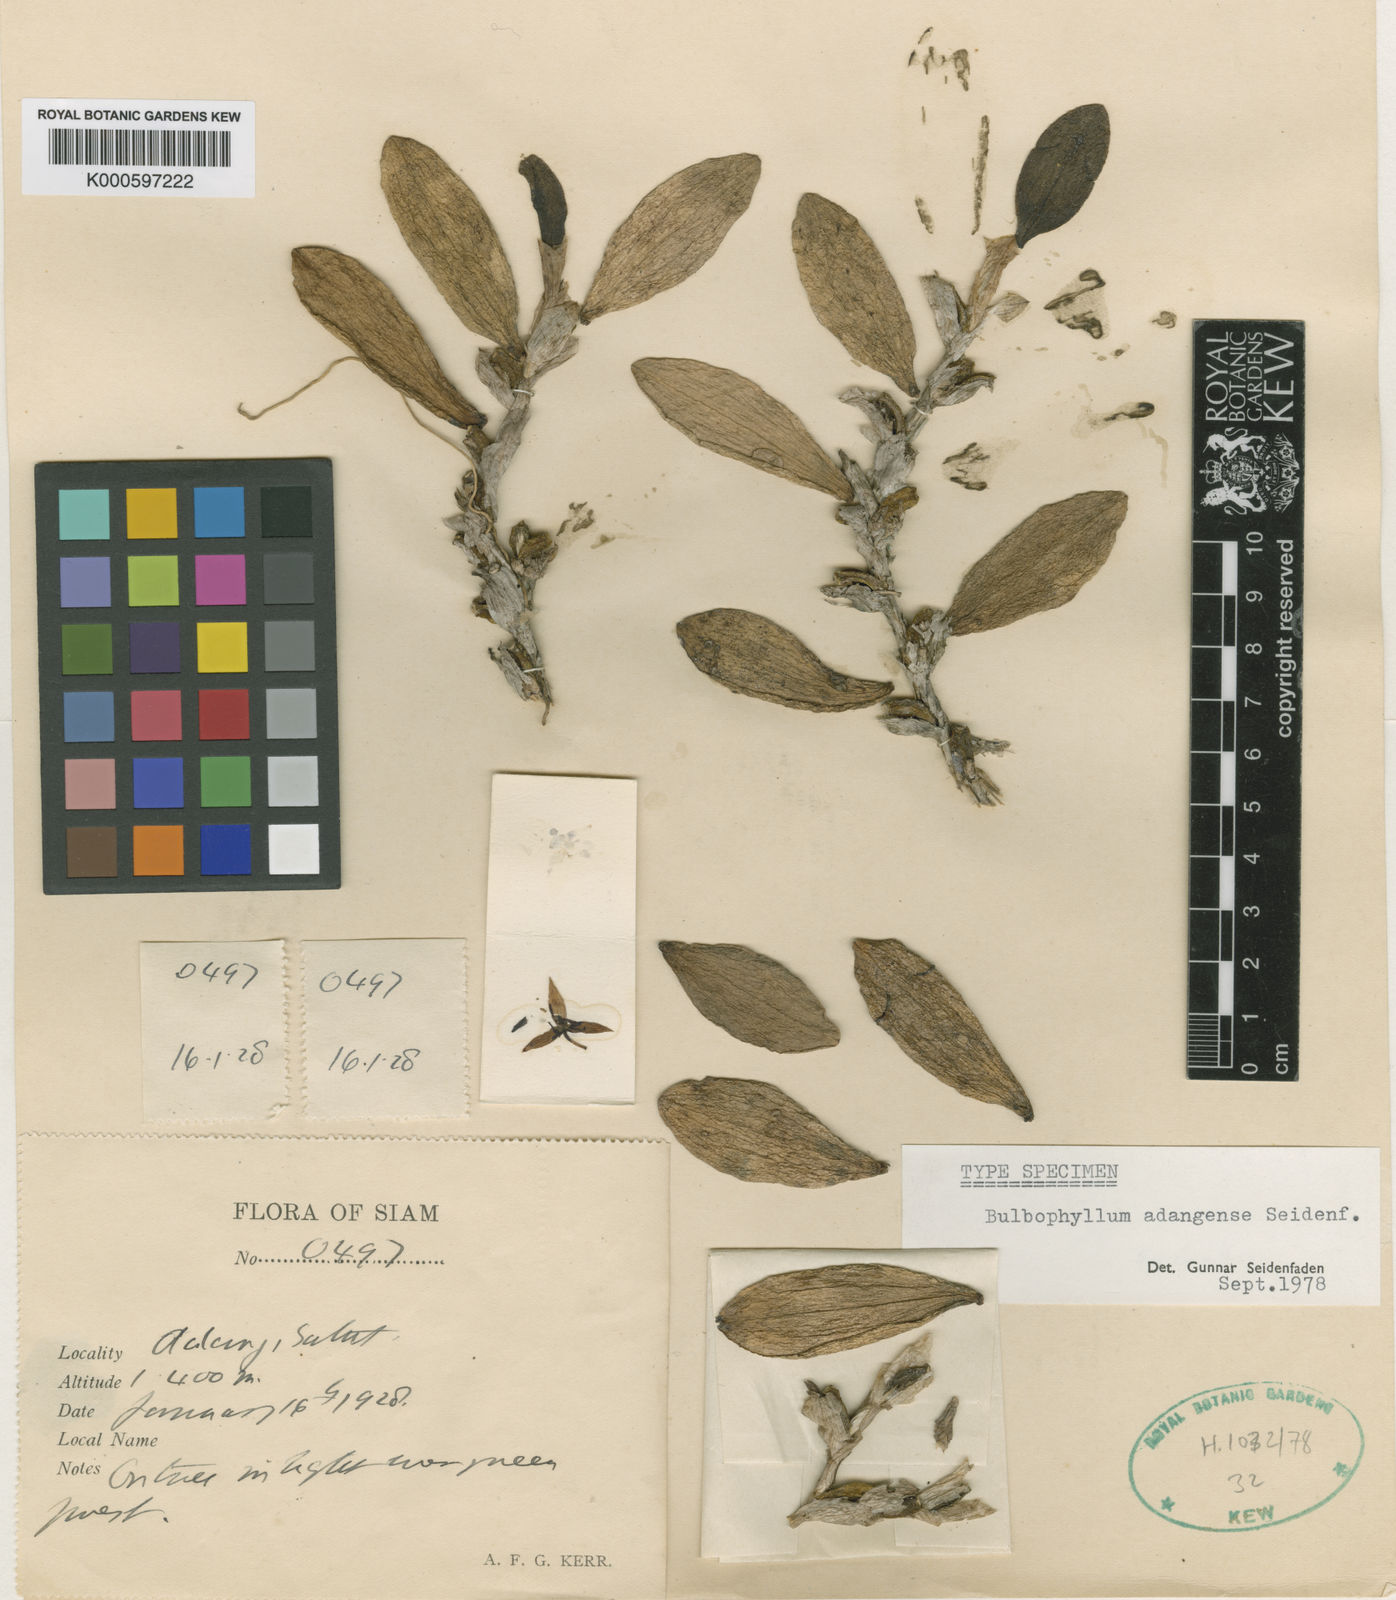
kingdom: Plantae
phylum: Tracheophyta
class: Liliopsida
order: Asparagales
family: Orchidaceae
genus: Bulbophyllum
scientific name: Bulbophyllum adangense
